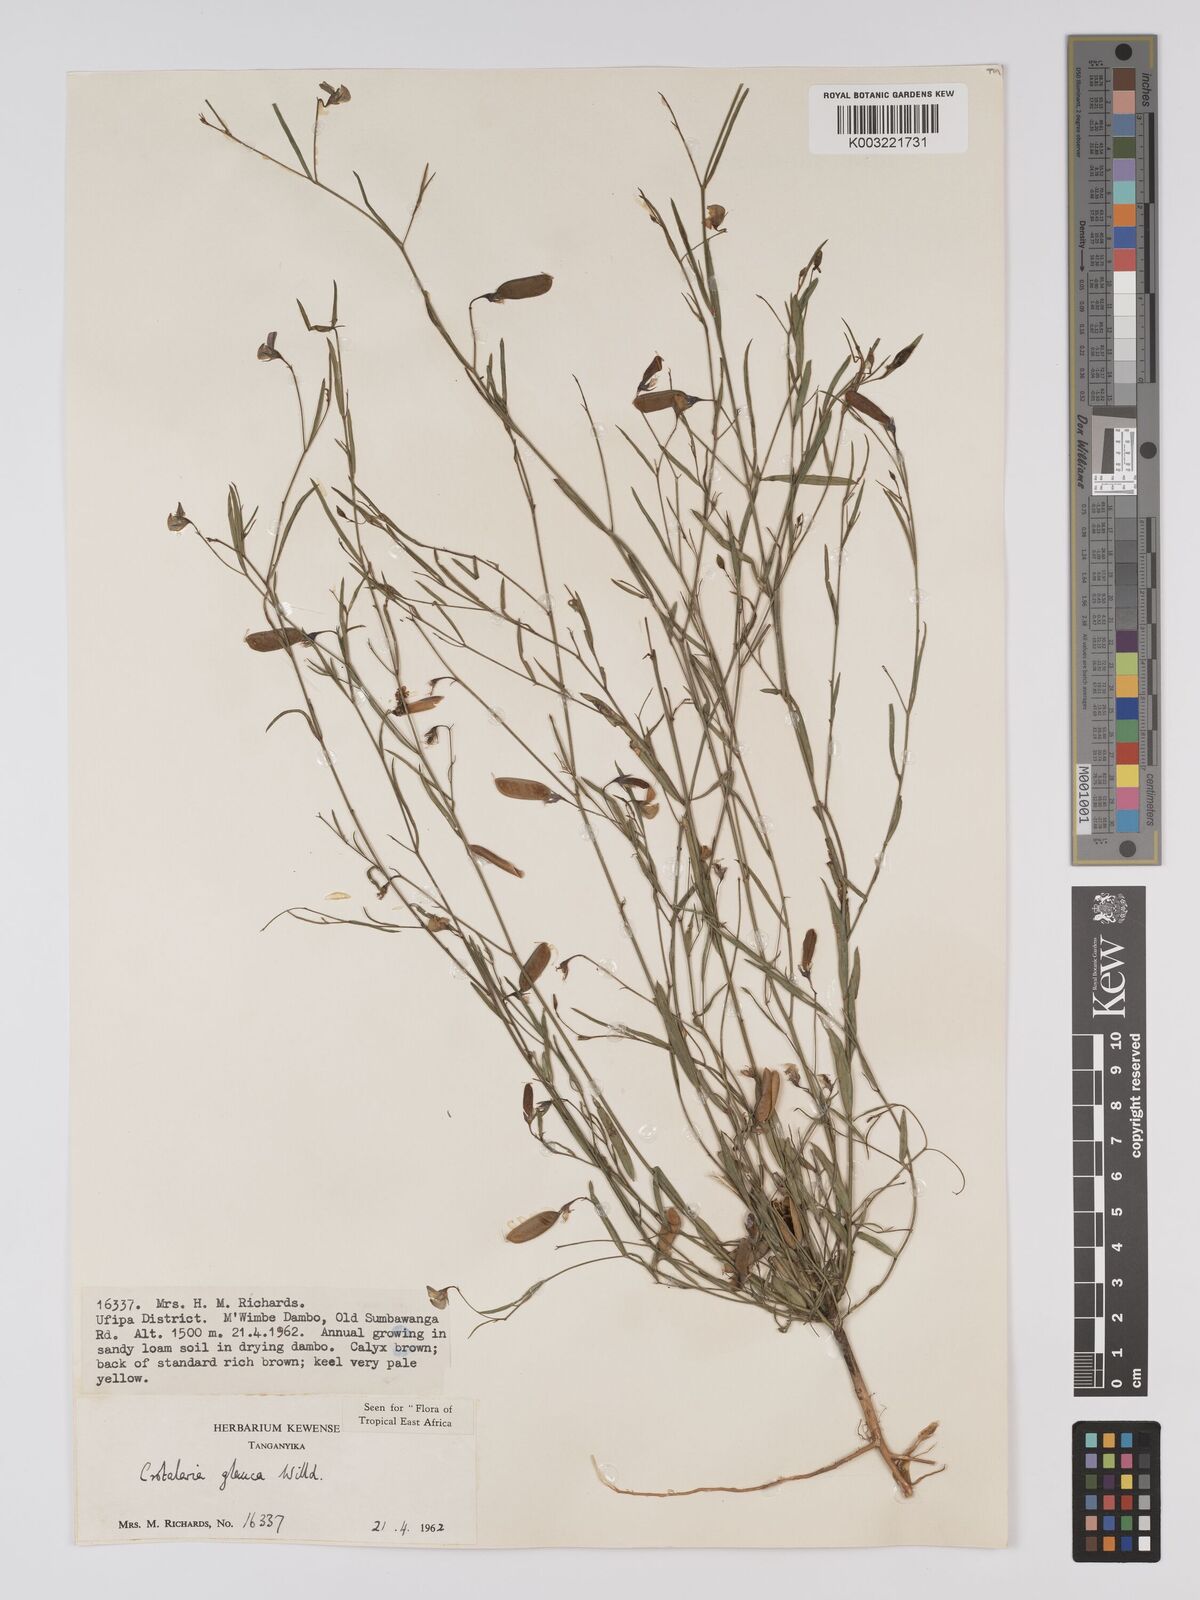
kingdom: Plantae
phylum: Tracheophyta
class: Magnoliopsida
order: Fabales
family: Fabaceae
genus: Crotalaria
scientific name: Crotalaria glauca
